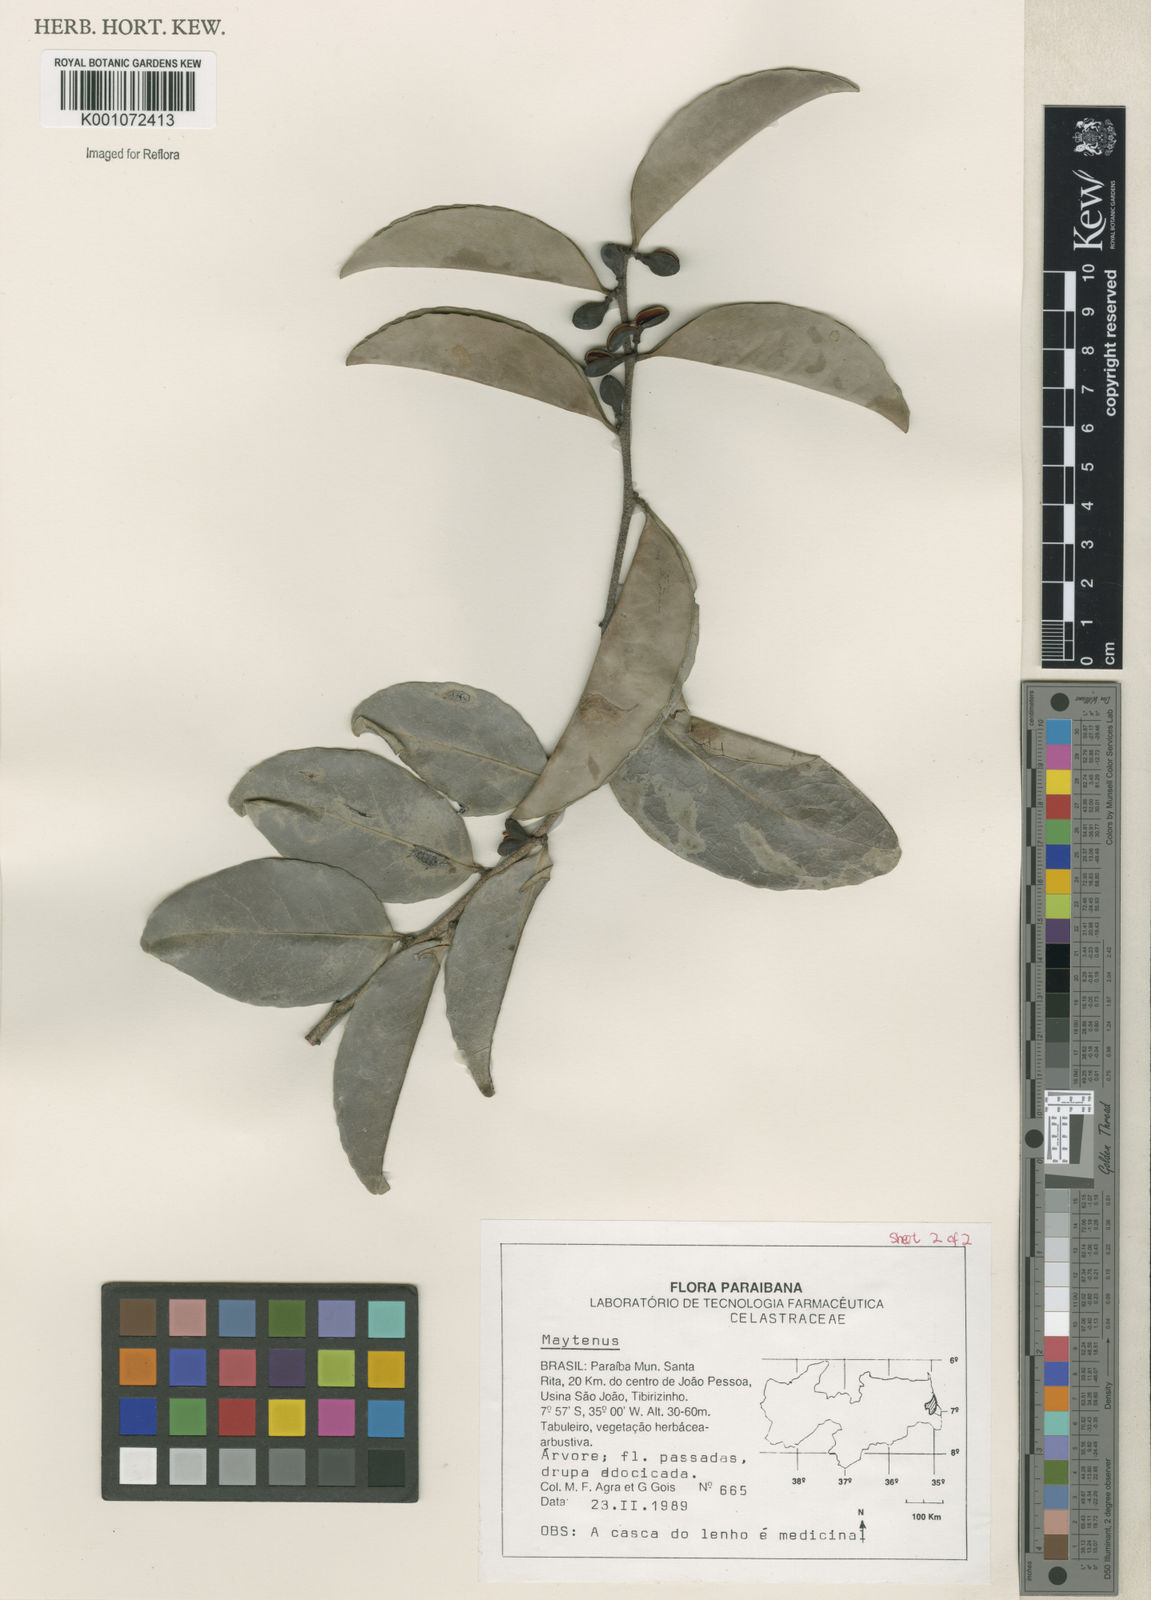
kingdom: Plantae
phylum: Tracheophyta
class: Magnoliopsida
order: Celastrales
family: Celastraceae
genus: Maytenus
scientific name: Maytenus
